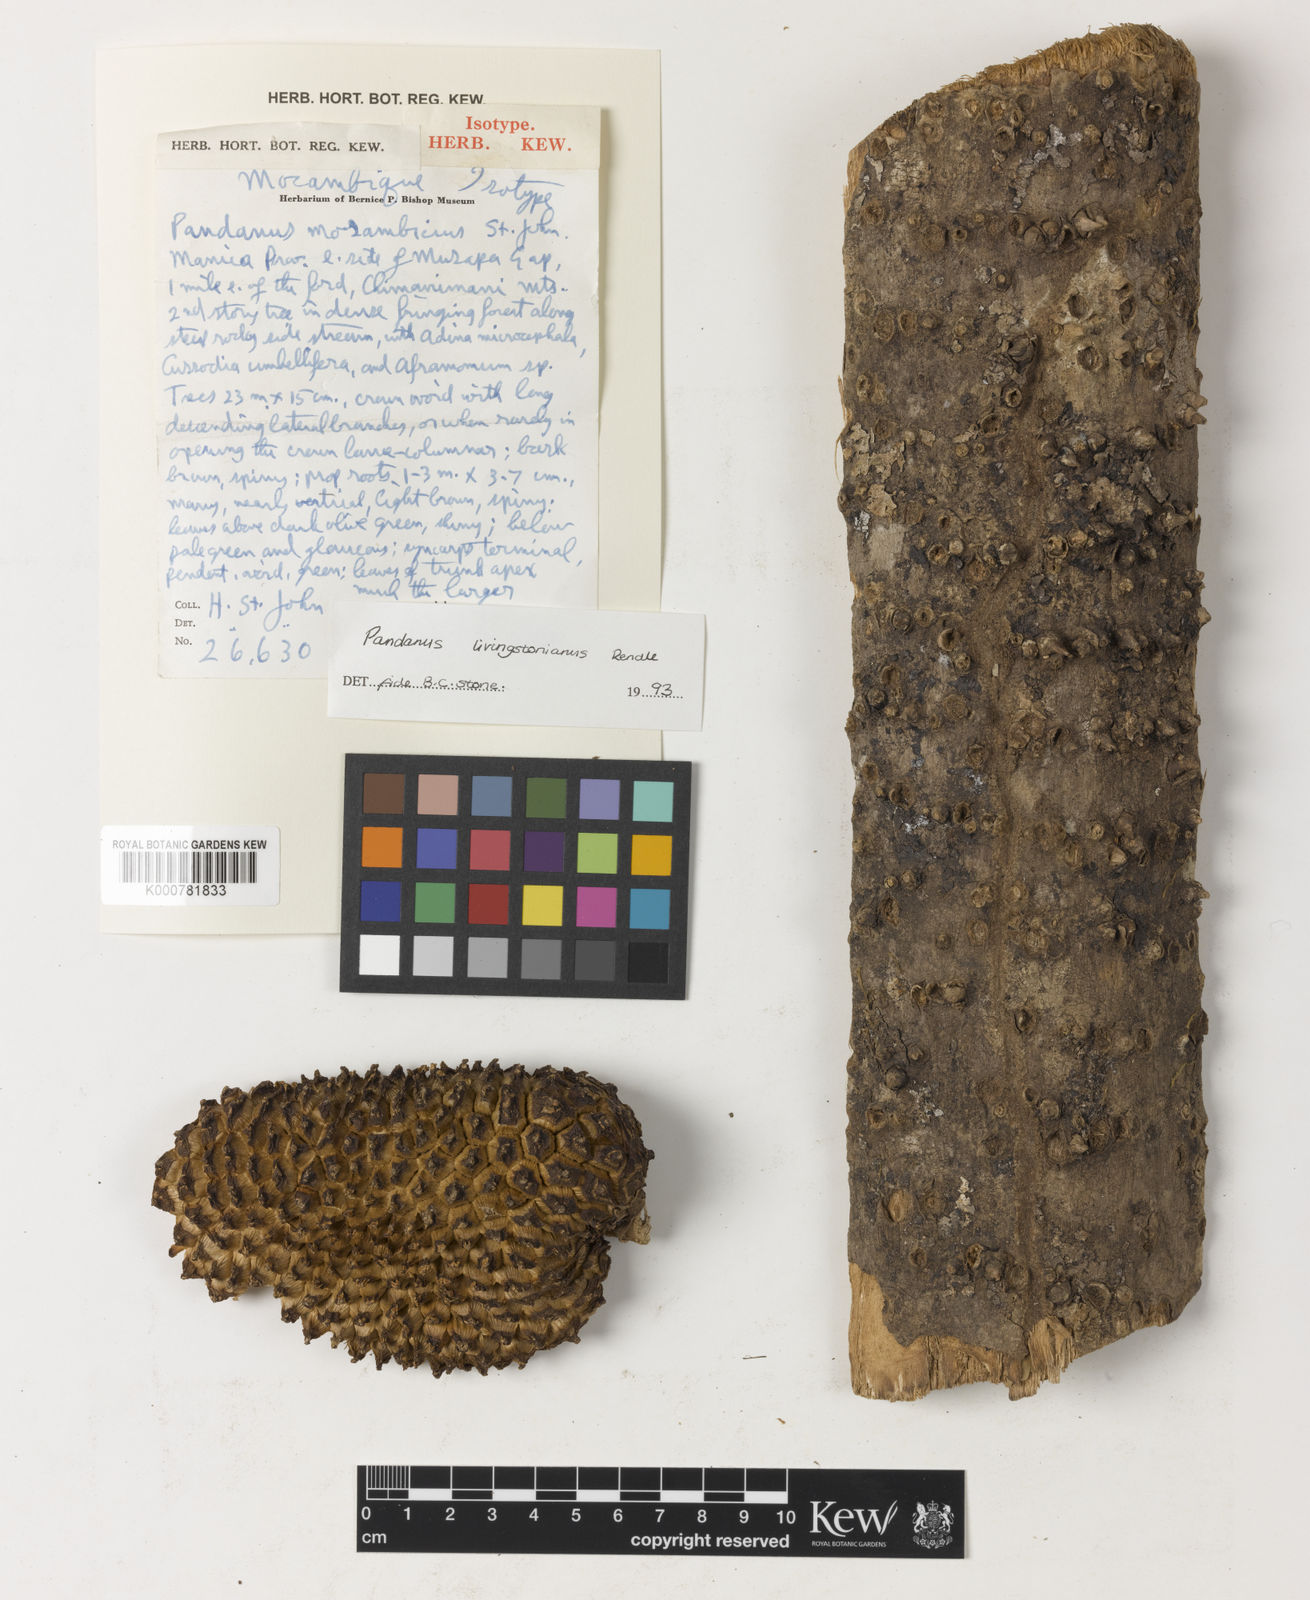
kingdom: Plantae
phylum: Tracheophyta
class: Liliopsida
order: Pandanales
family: Pandanaceae
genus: Pandanus
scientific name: Pandanus livingstonianus
